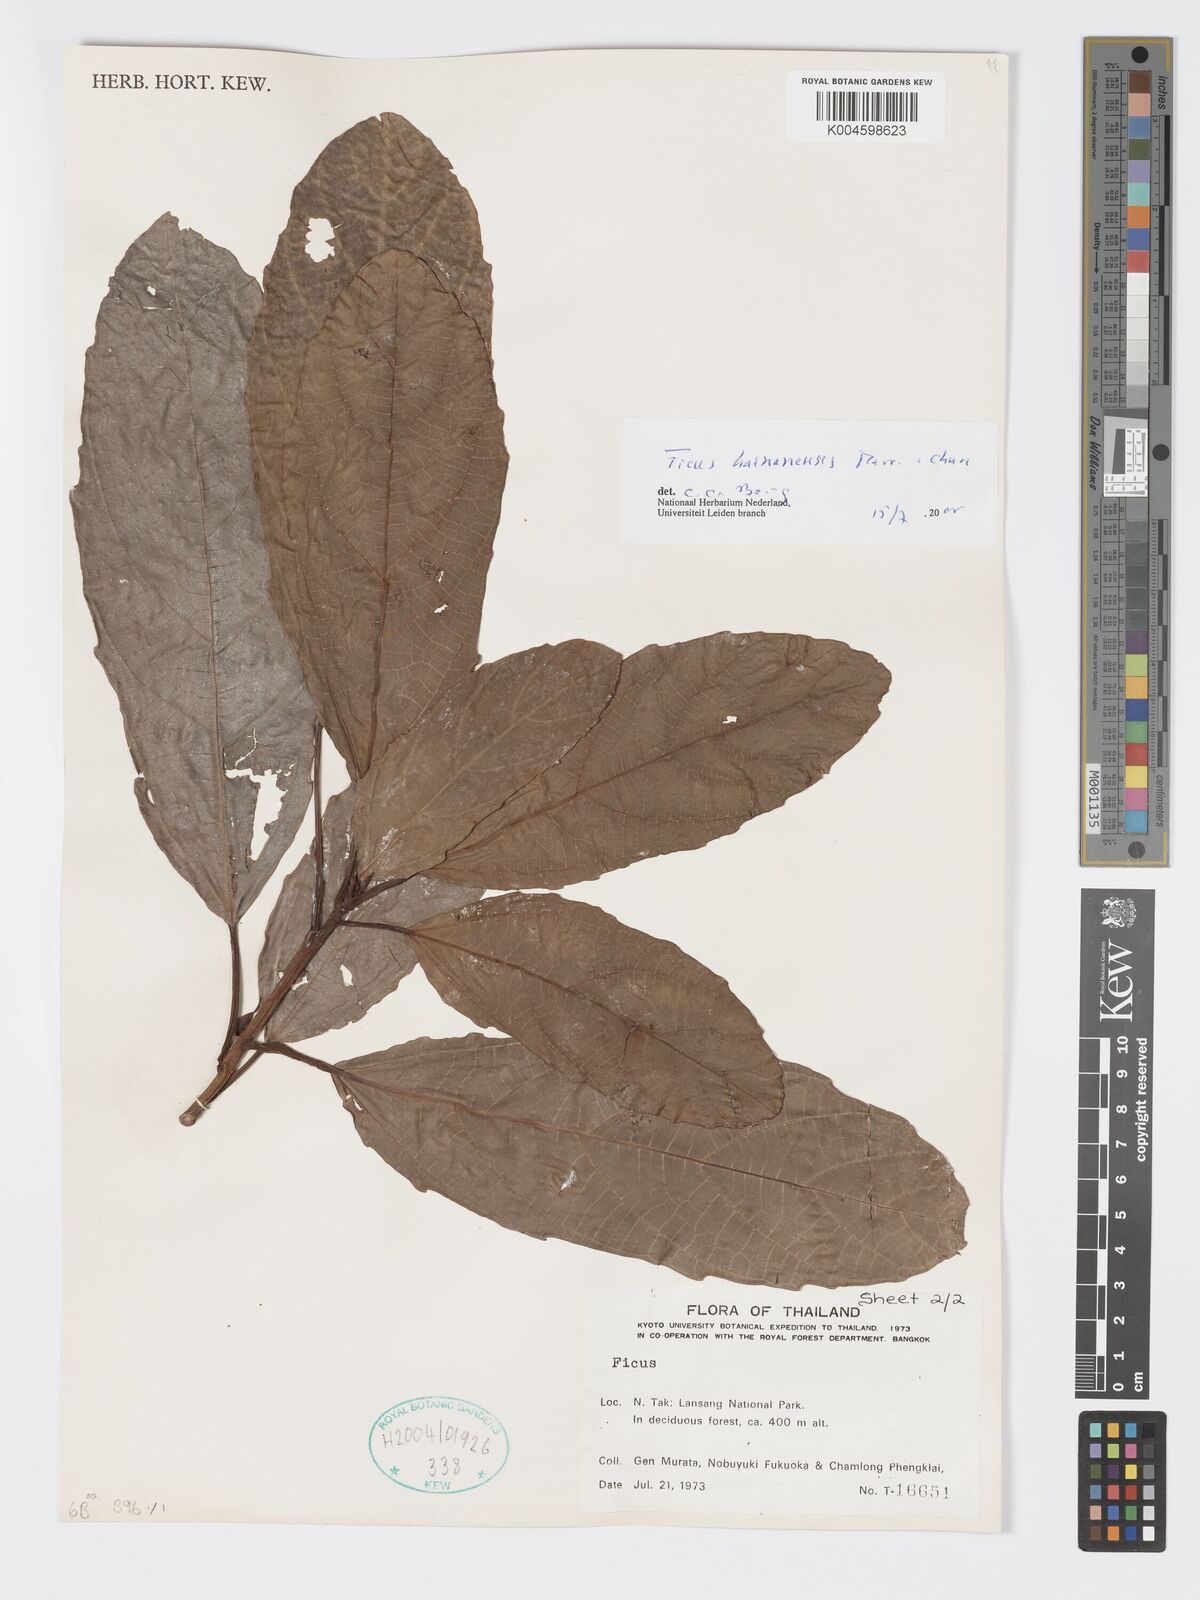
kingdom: Plantae
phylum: Tracheophyta
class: Magnoliopsida
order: Rosales
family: Moraceae
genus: Ficus
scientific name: Ficus auriculata
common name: Roxburgh fig
